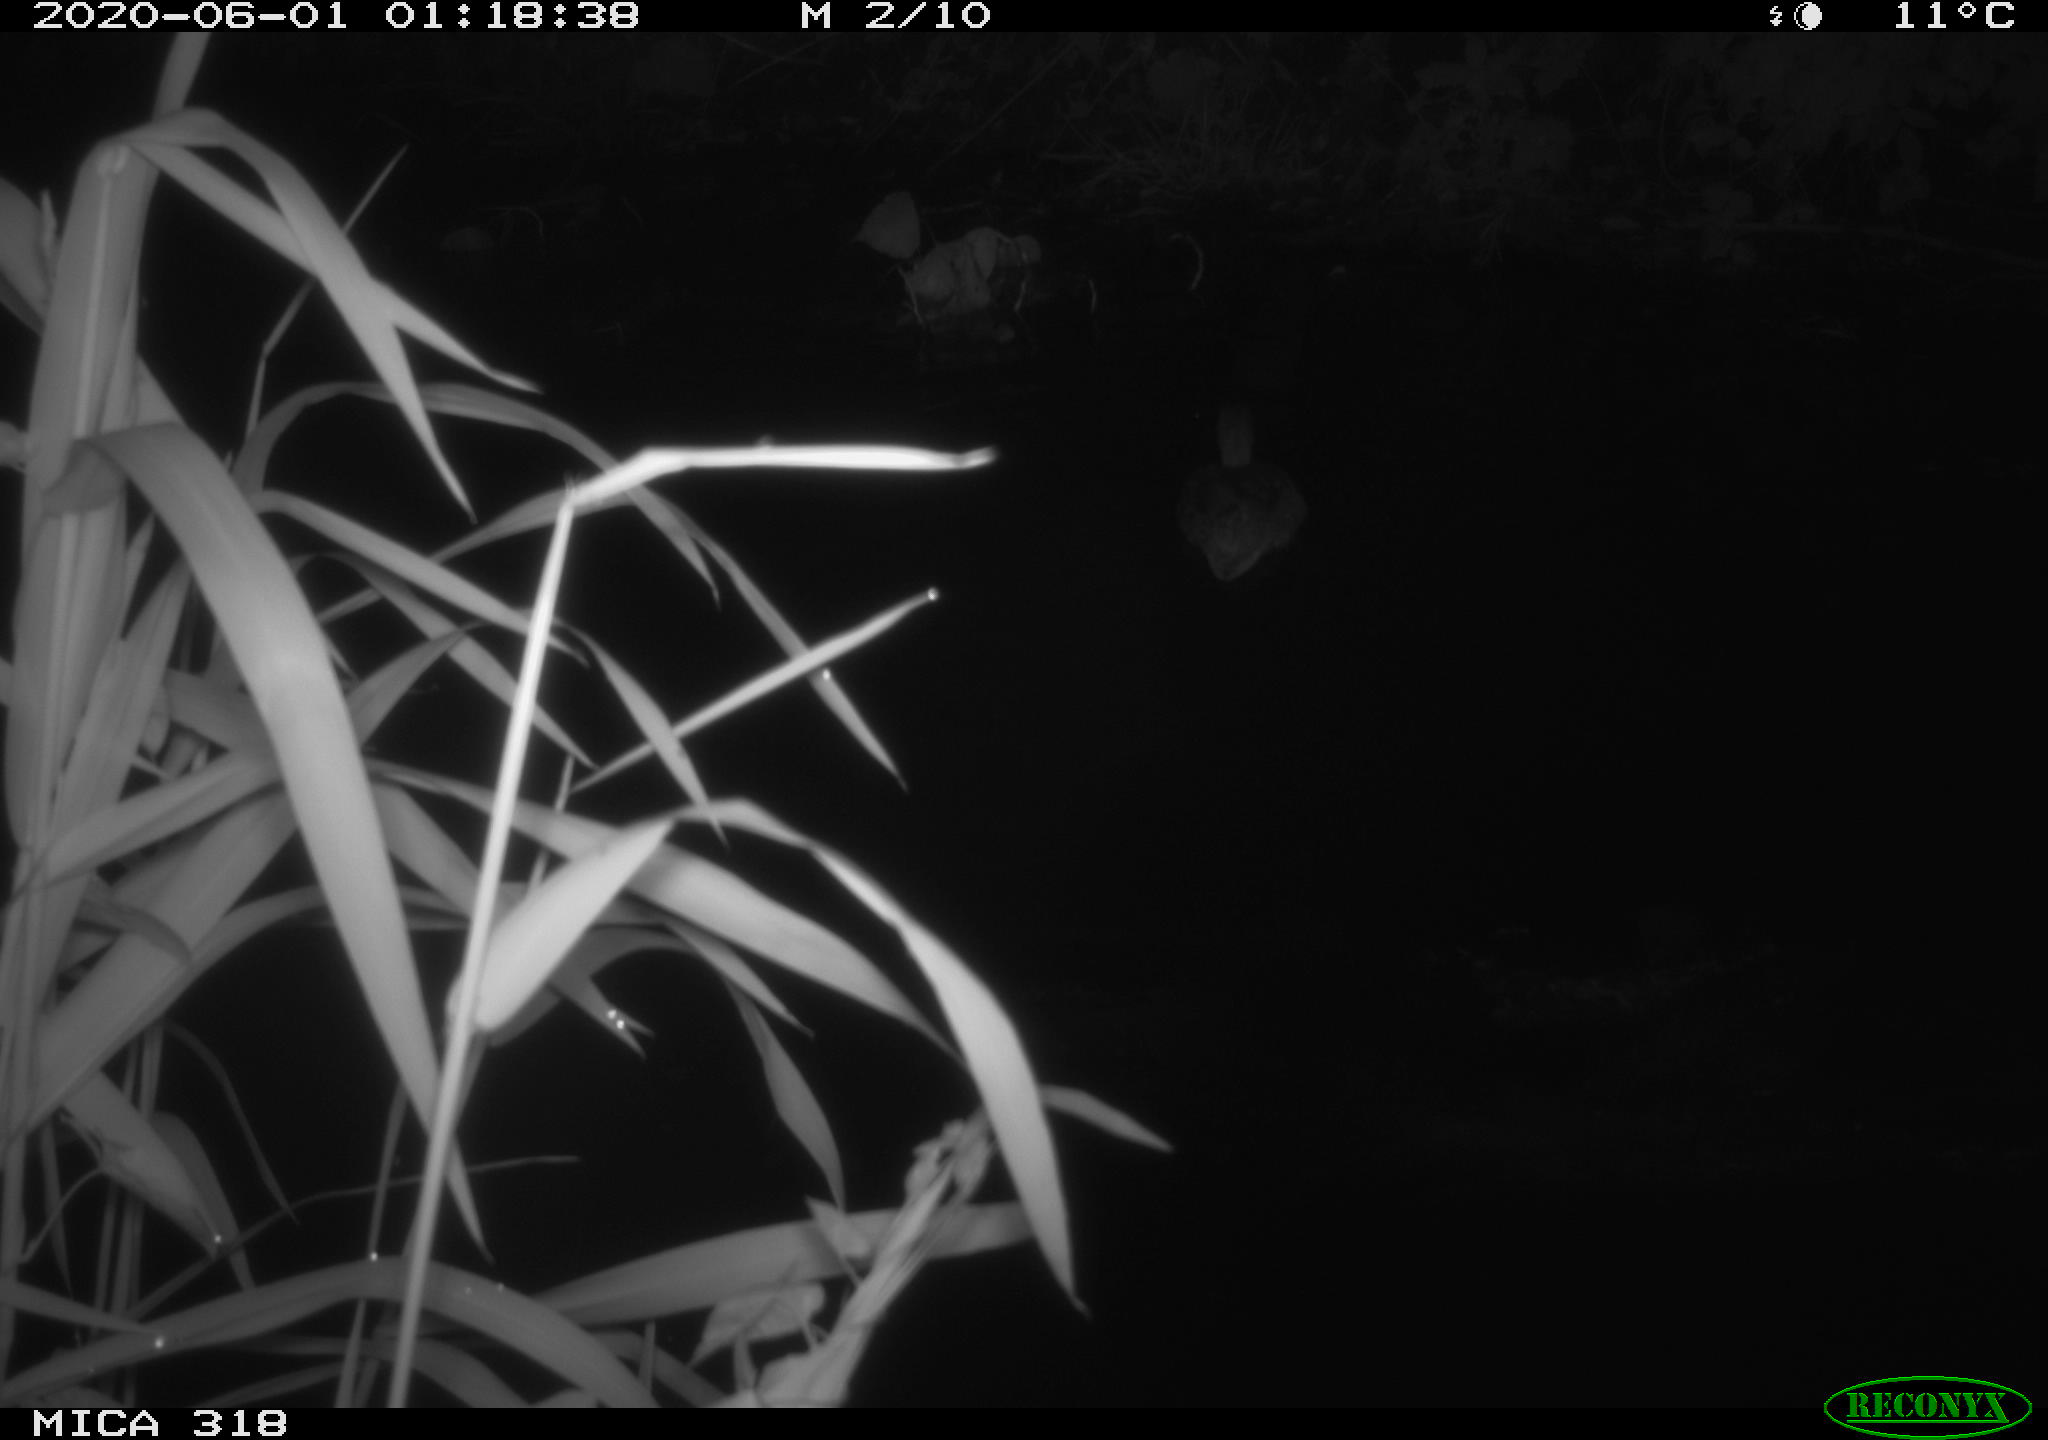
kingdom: Animalia
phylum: Chordata
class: Aves
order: Anseriformes
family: Anatidae
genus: Anas
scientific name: Anas platyrhynchos
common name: Mallard
